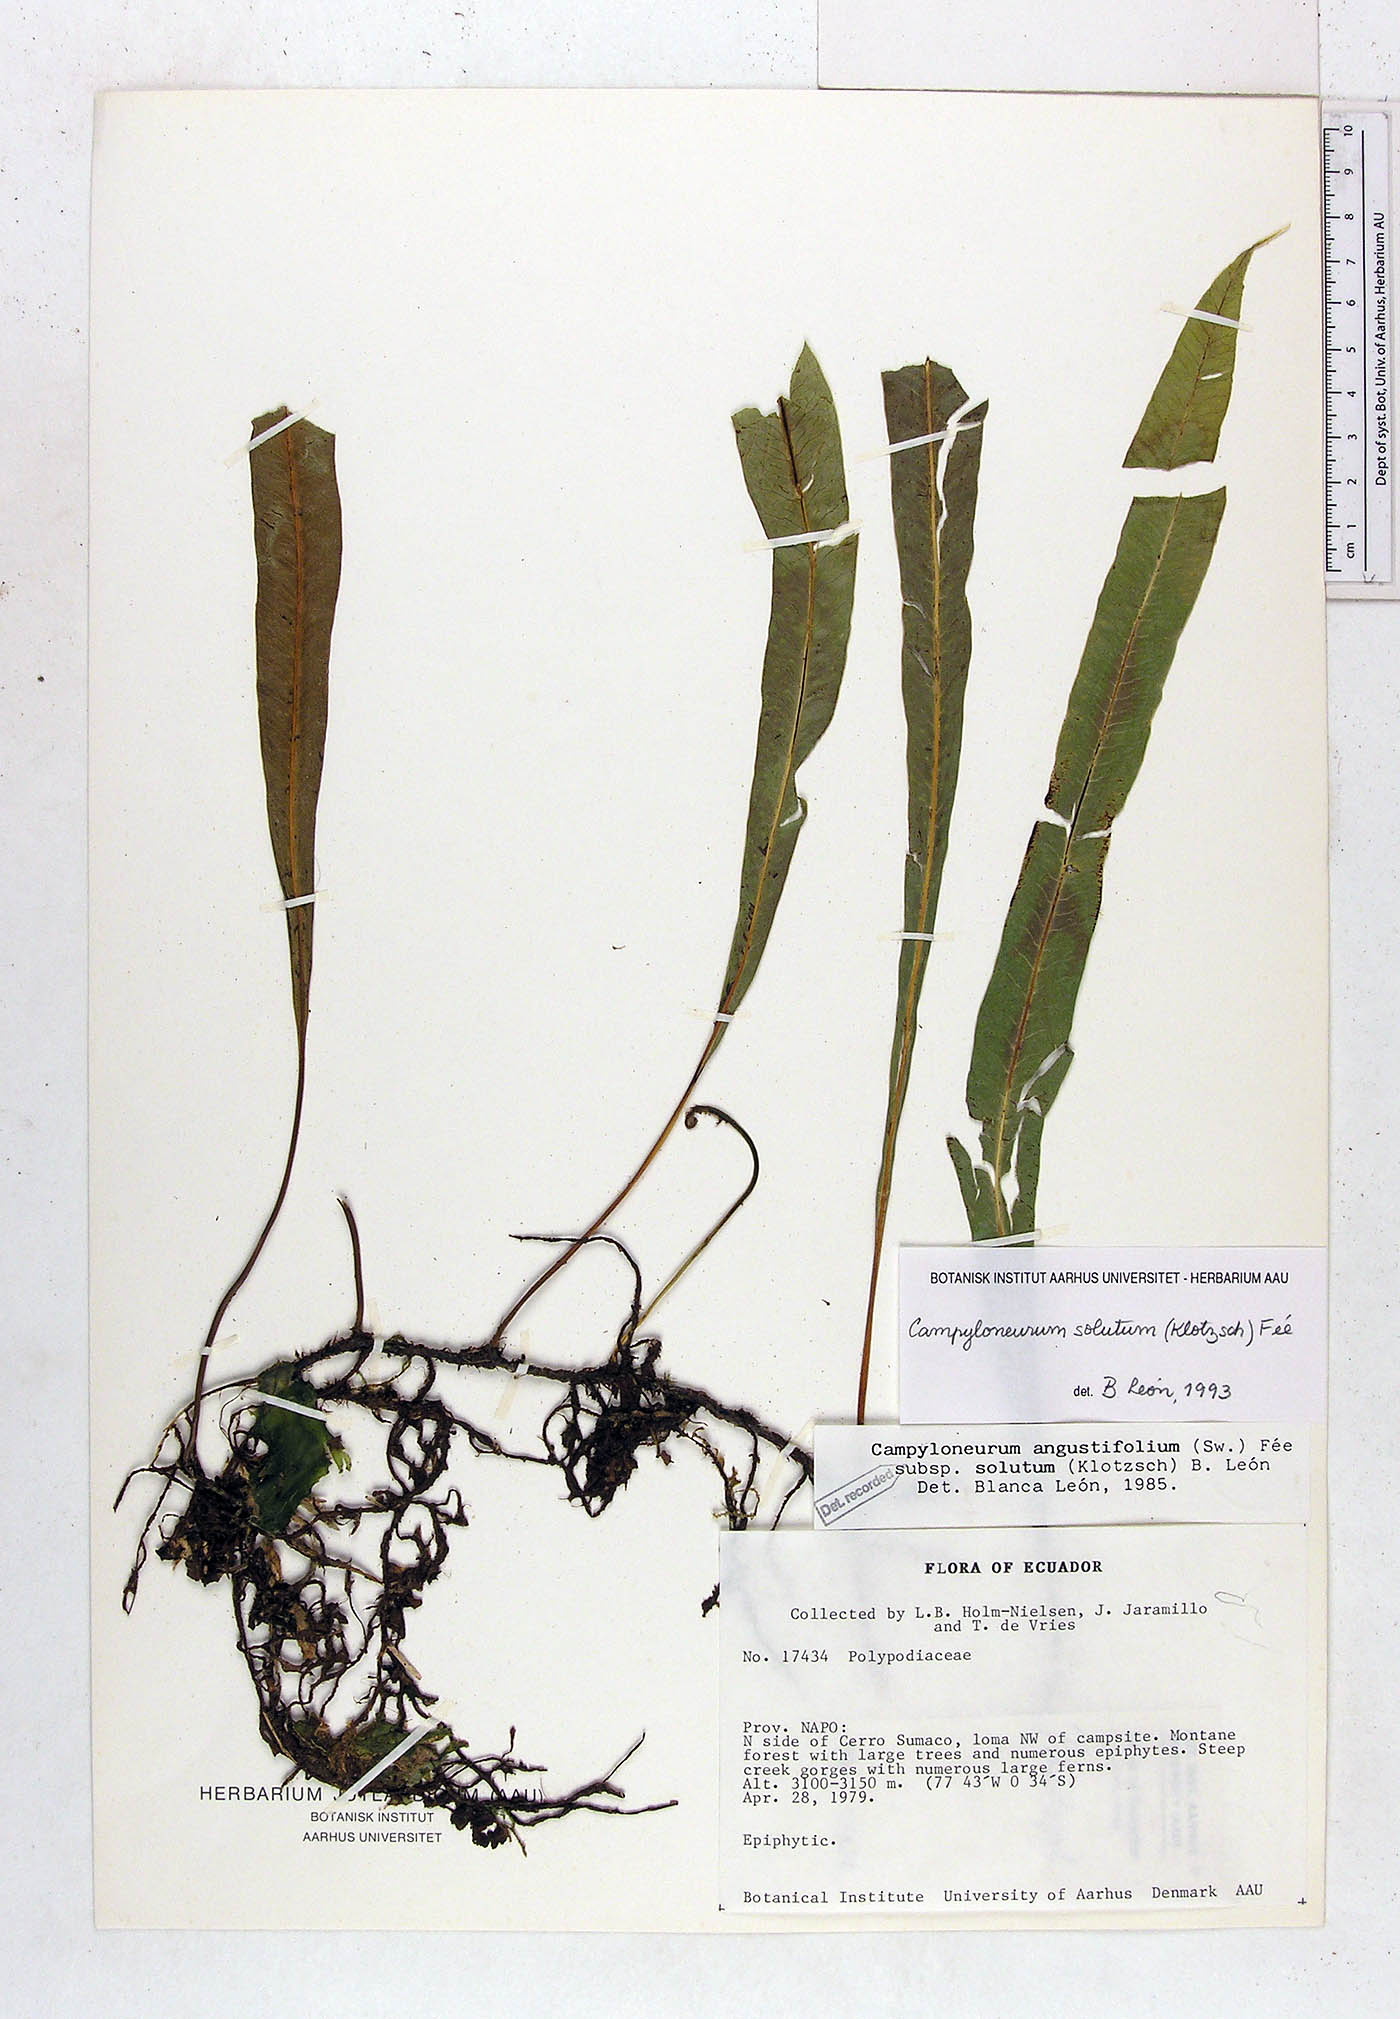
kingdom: Plantae
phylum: Tracheophyta
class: Polypodiopsida
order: Polypodiales
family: Polypodiaceae
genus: Campyloneurum
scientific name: Campyloneurum solutum
